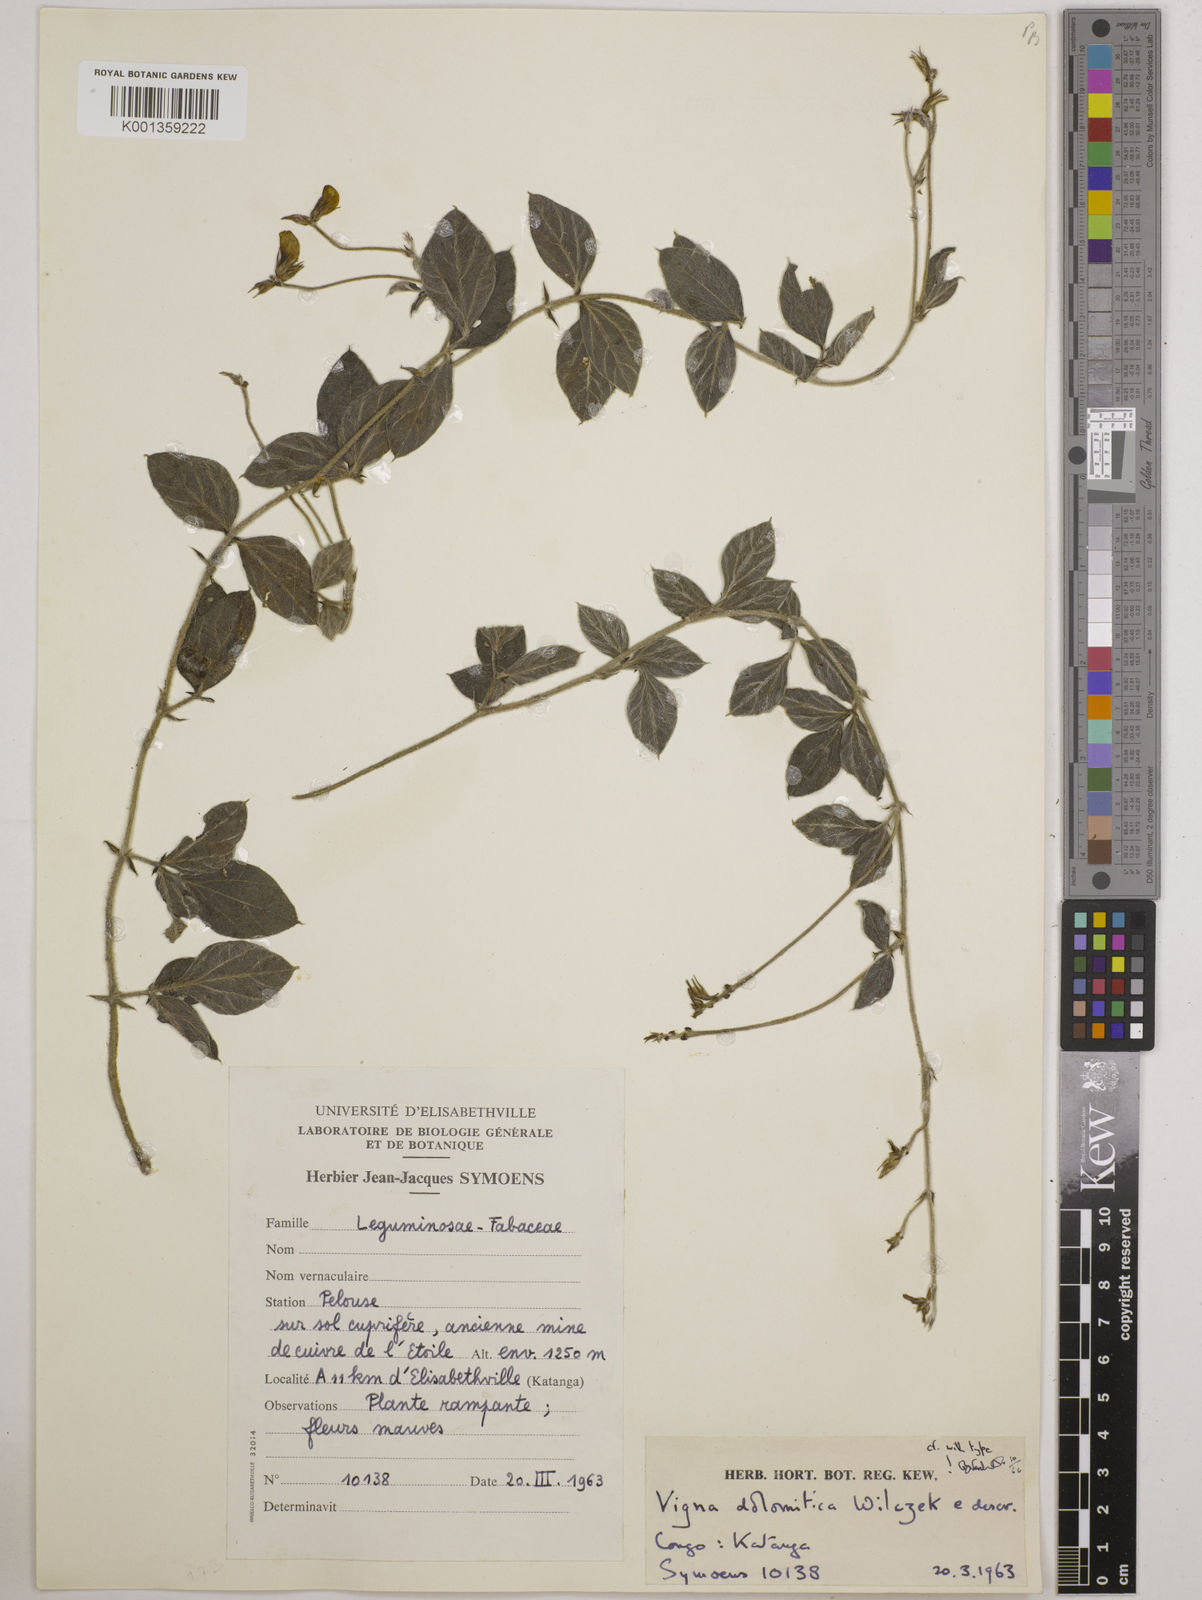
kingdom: Plantae
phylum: Tracheophyta
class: Magnoliopsida
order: Fabales
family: Fabaceae
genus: Vigna
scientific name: Vigna dolomitica
